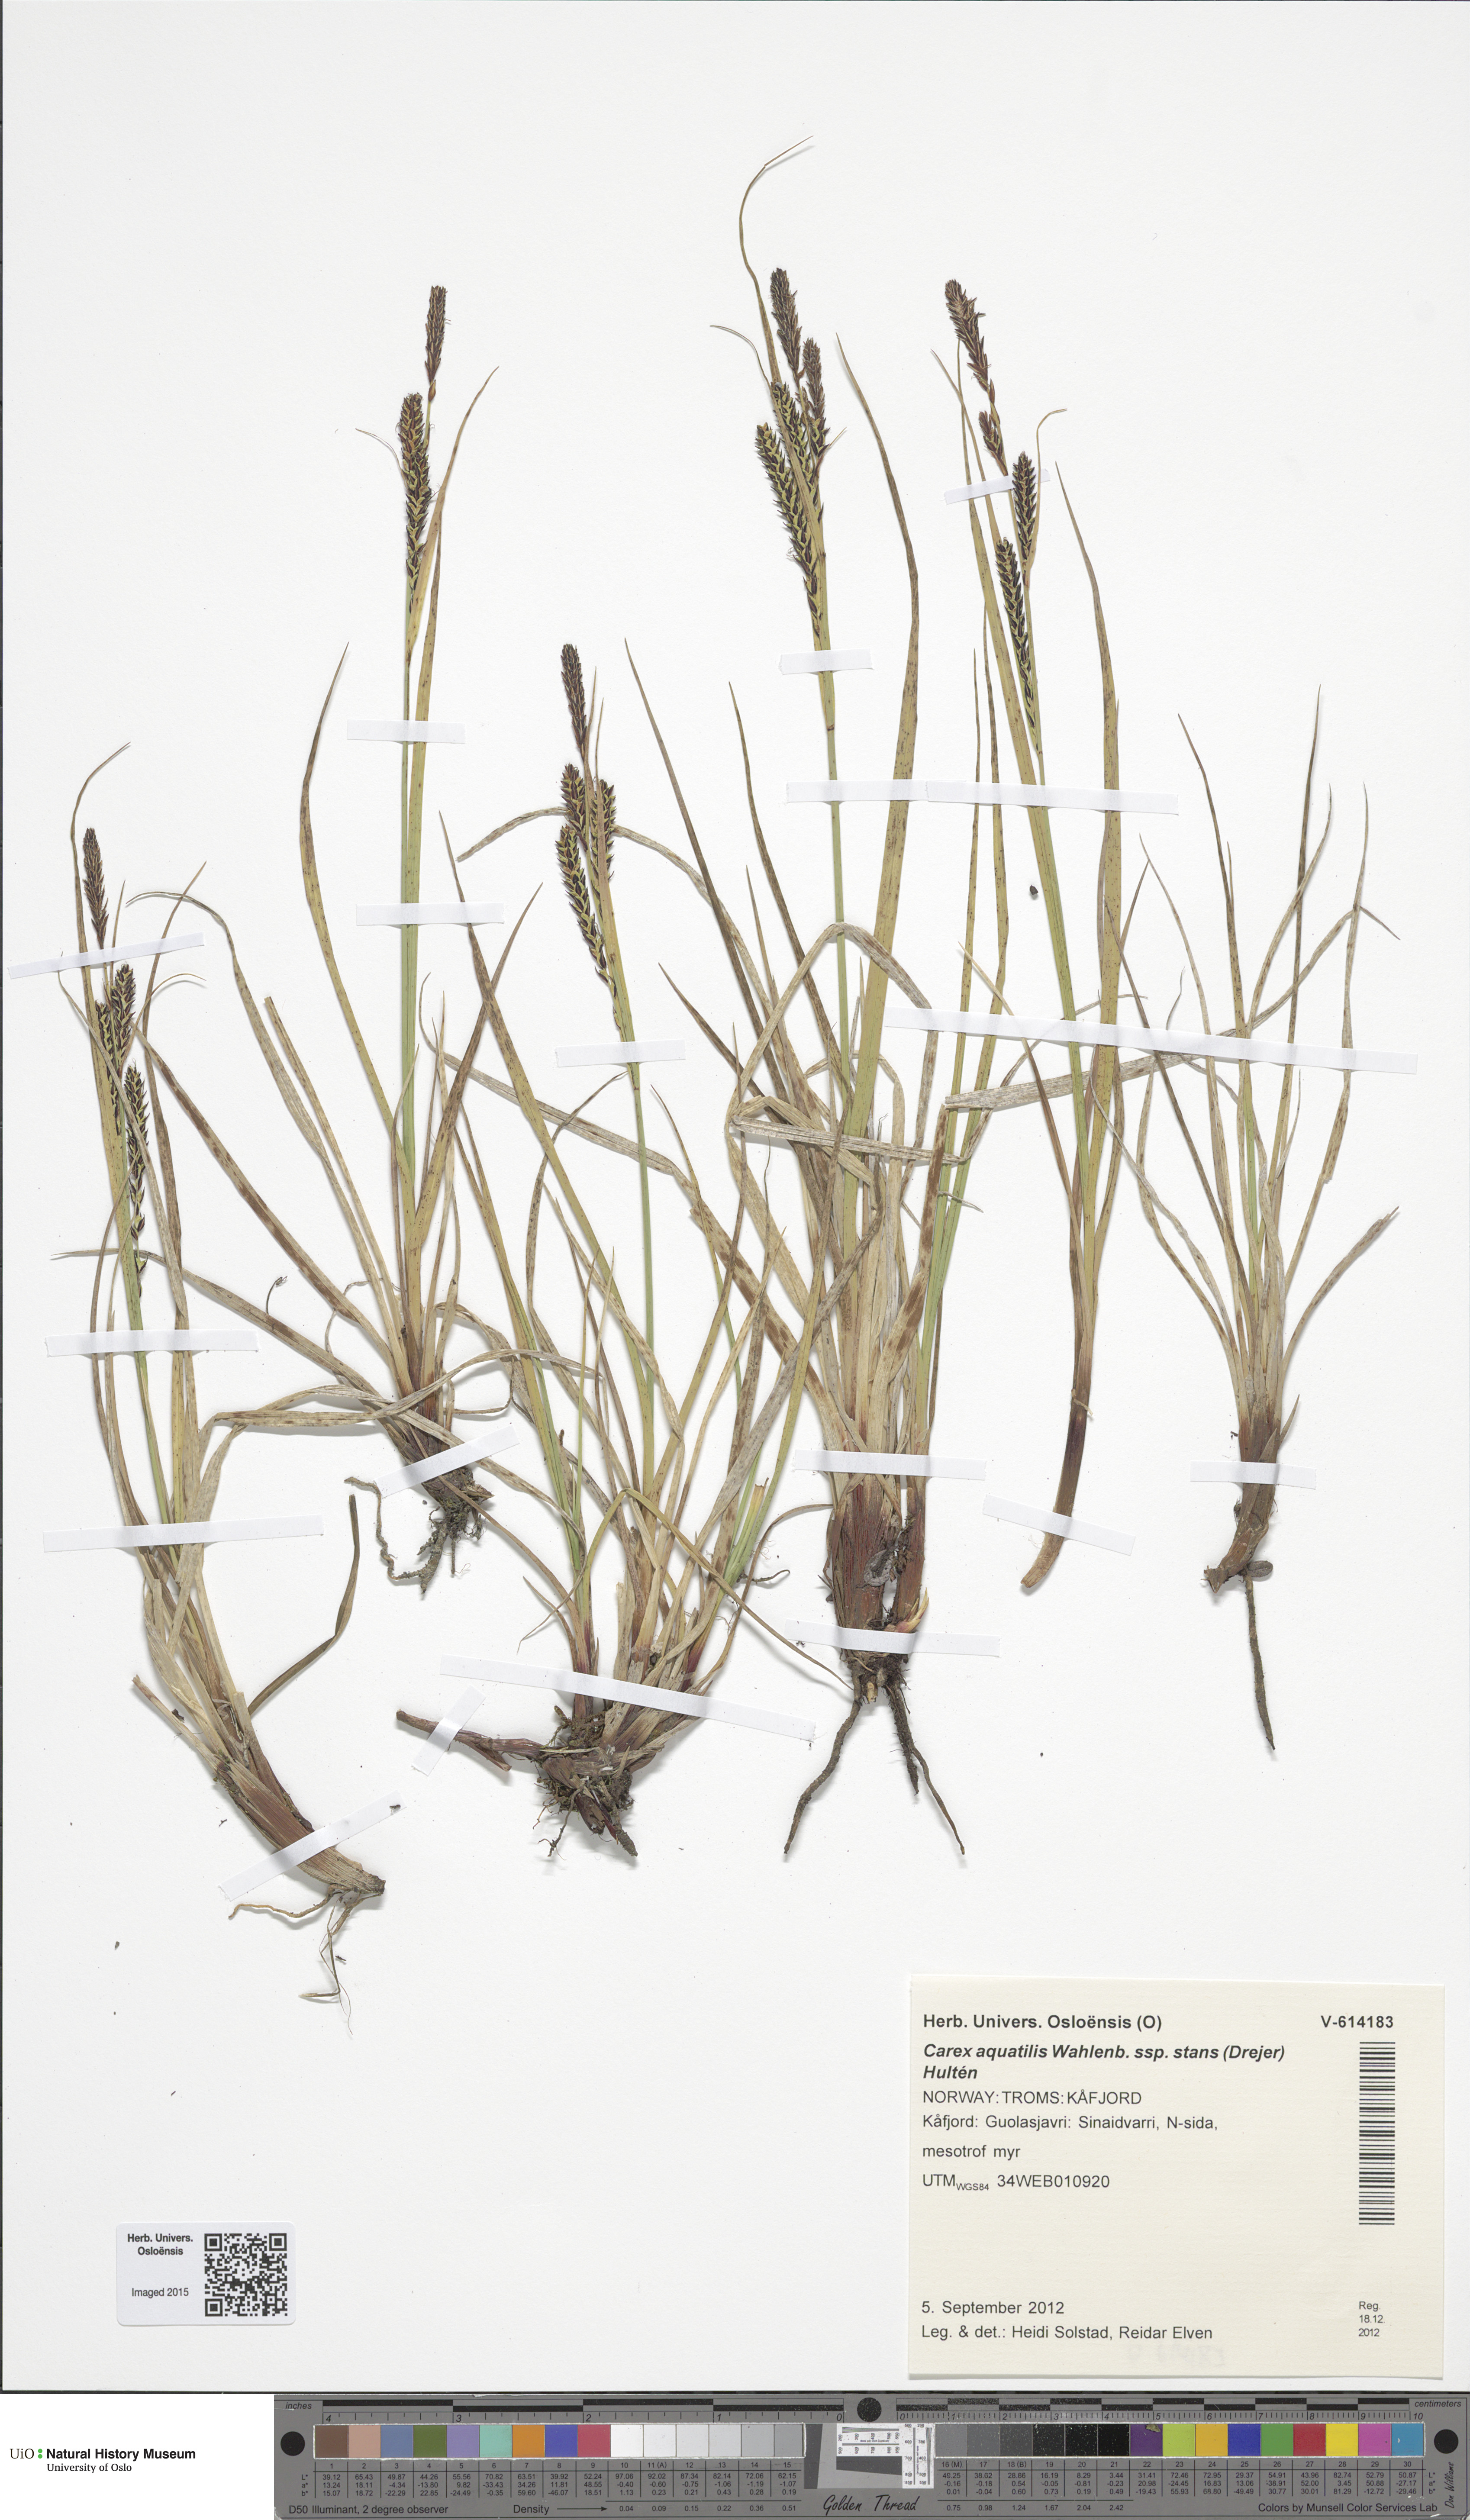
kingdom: Plantae
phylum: Tracheophyta
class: Liliopsida
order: Poales
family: Cyperaceae
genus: Carex
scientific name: Carex aquatilis
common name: Water sedge
